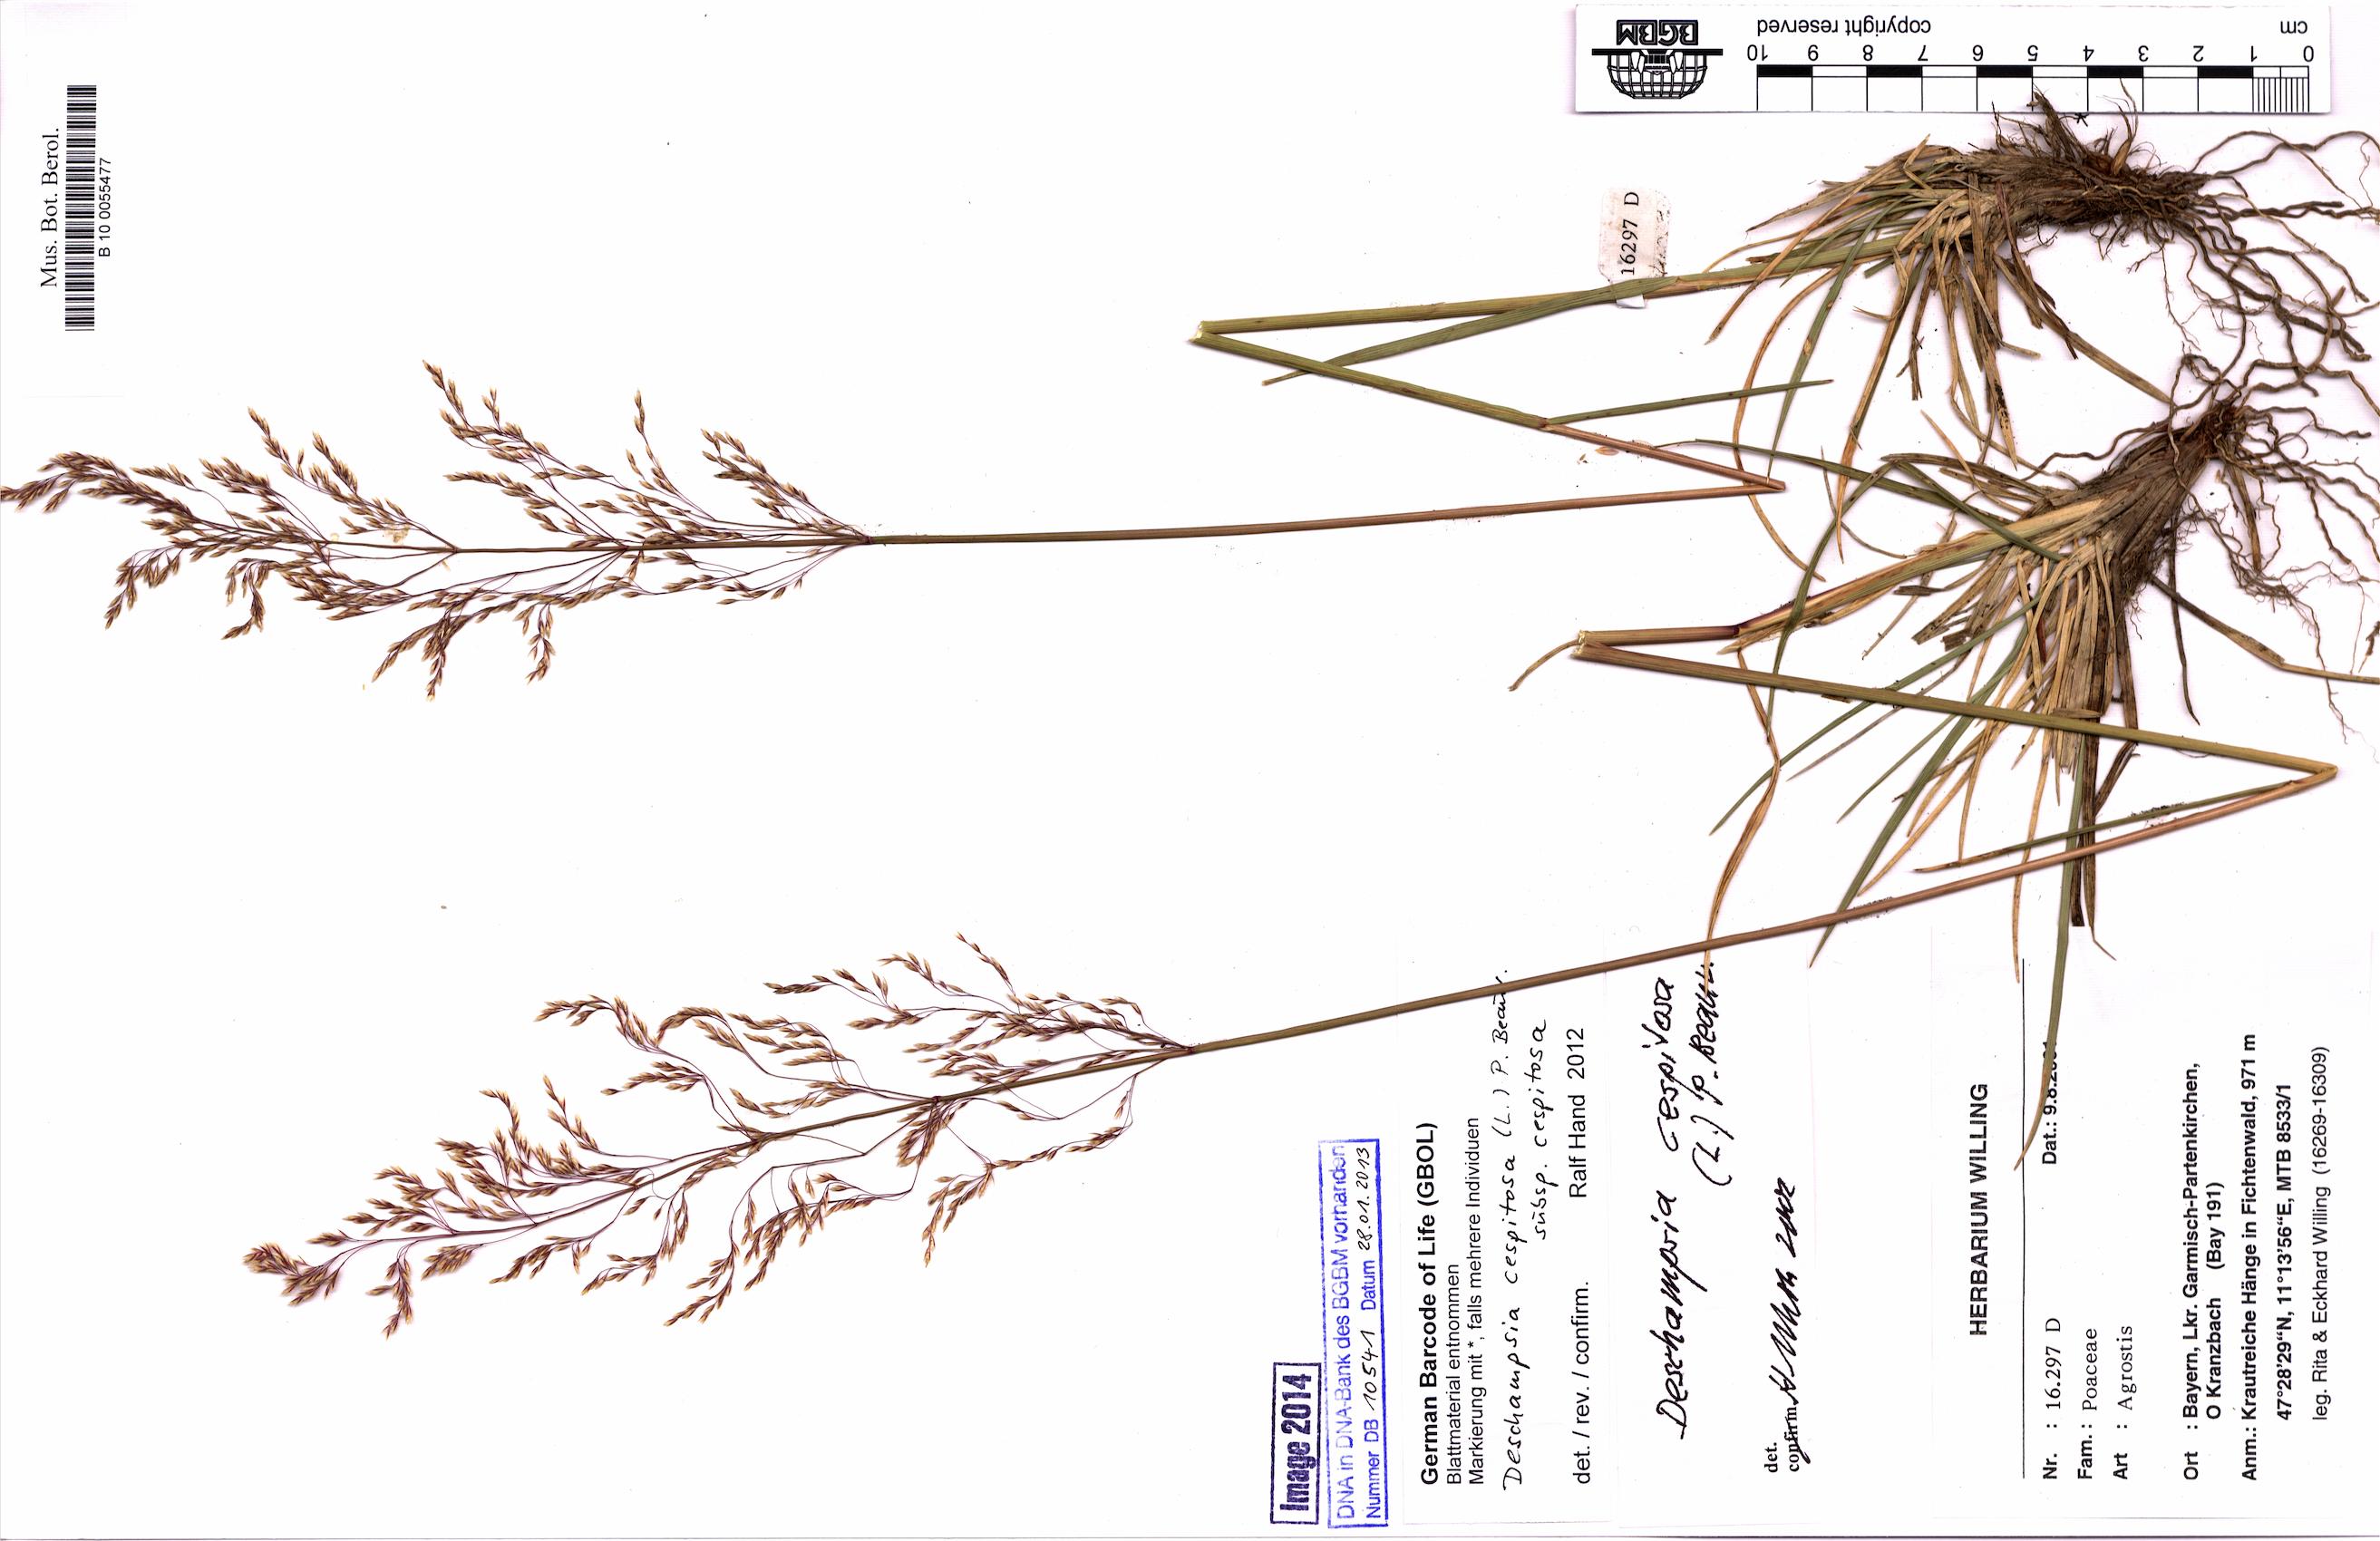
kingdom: Plantae
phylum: Tracheophyta
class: Liliopsida
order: Poales
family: Poaceae
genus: Deschampsia
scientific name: Deschampsia cespitosa
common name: Tufted hair-grass
